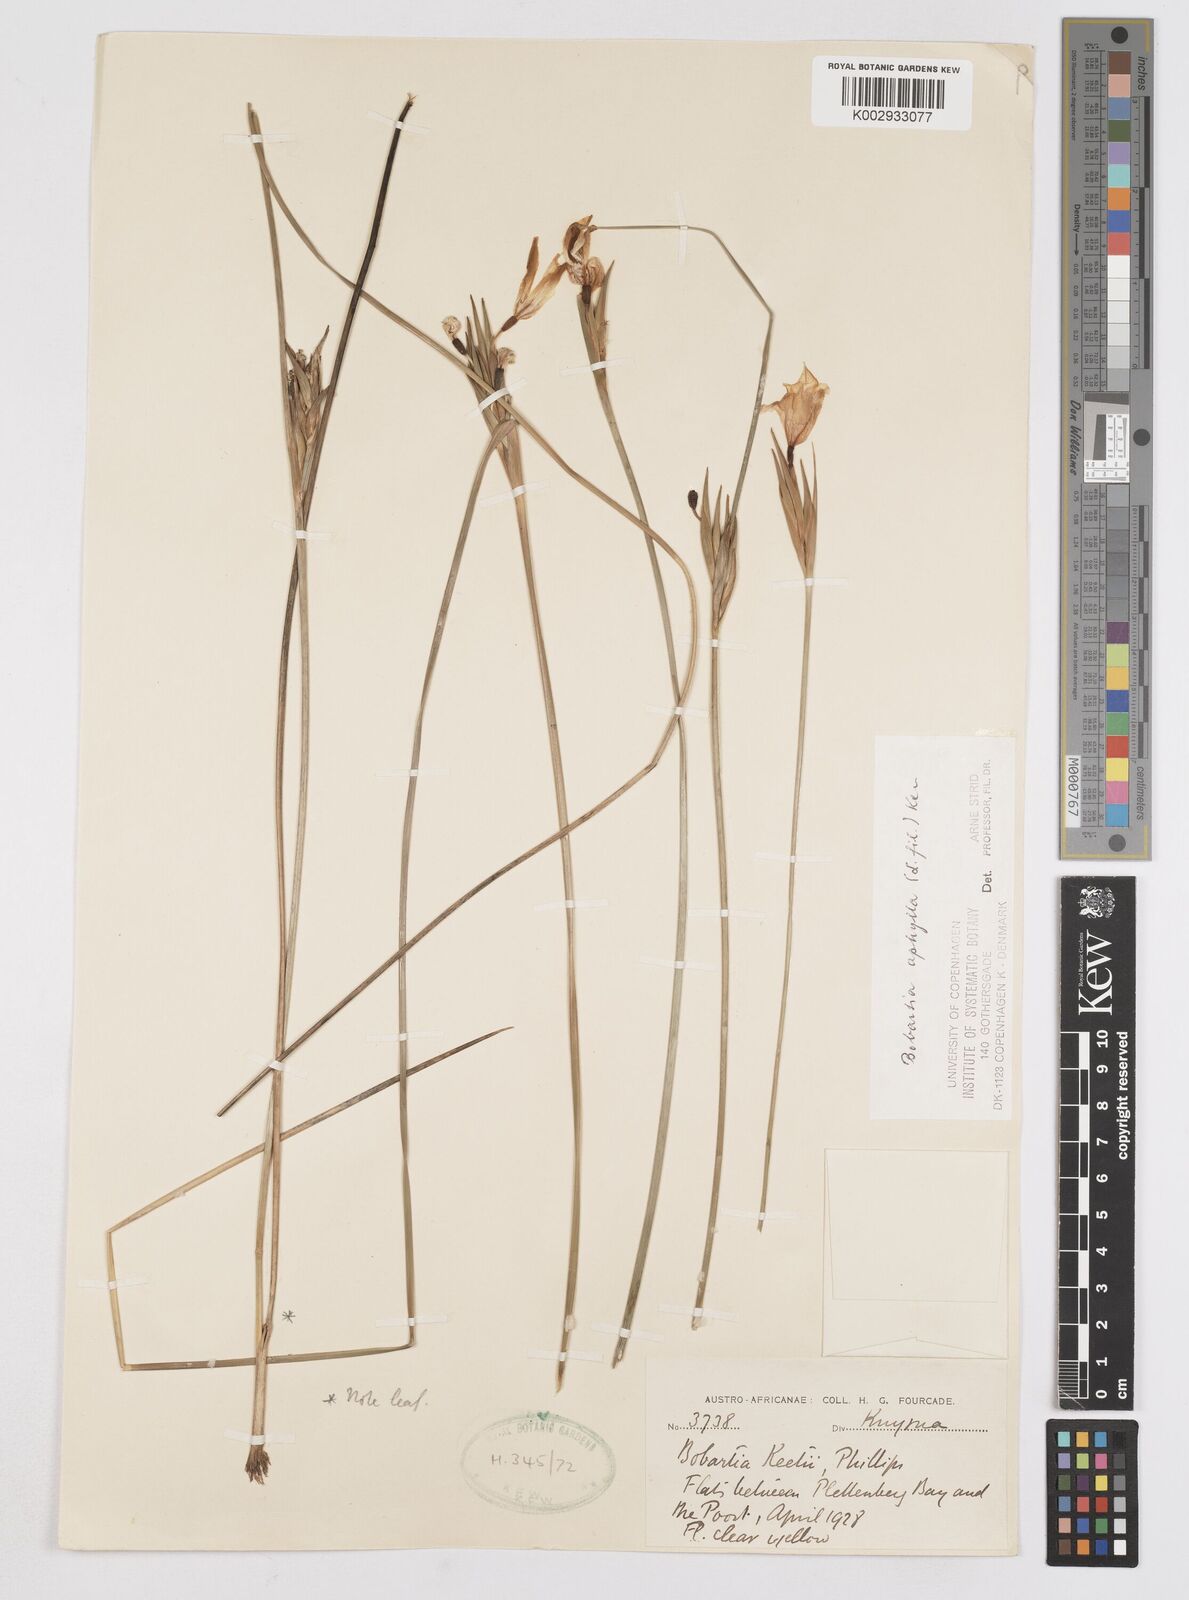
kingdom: Plantae
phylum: Tracheophyta
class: Liliopsida
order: Asparagales
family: Iridaceae
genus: Bobartia
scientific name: Bobartia aphylla
